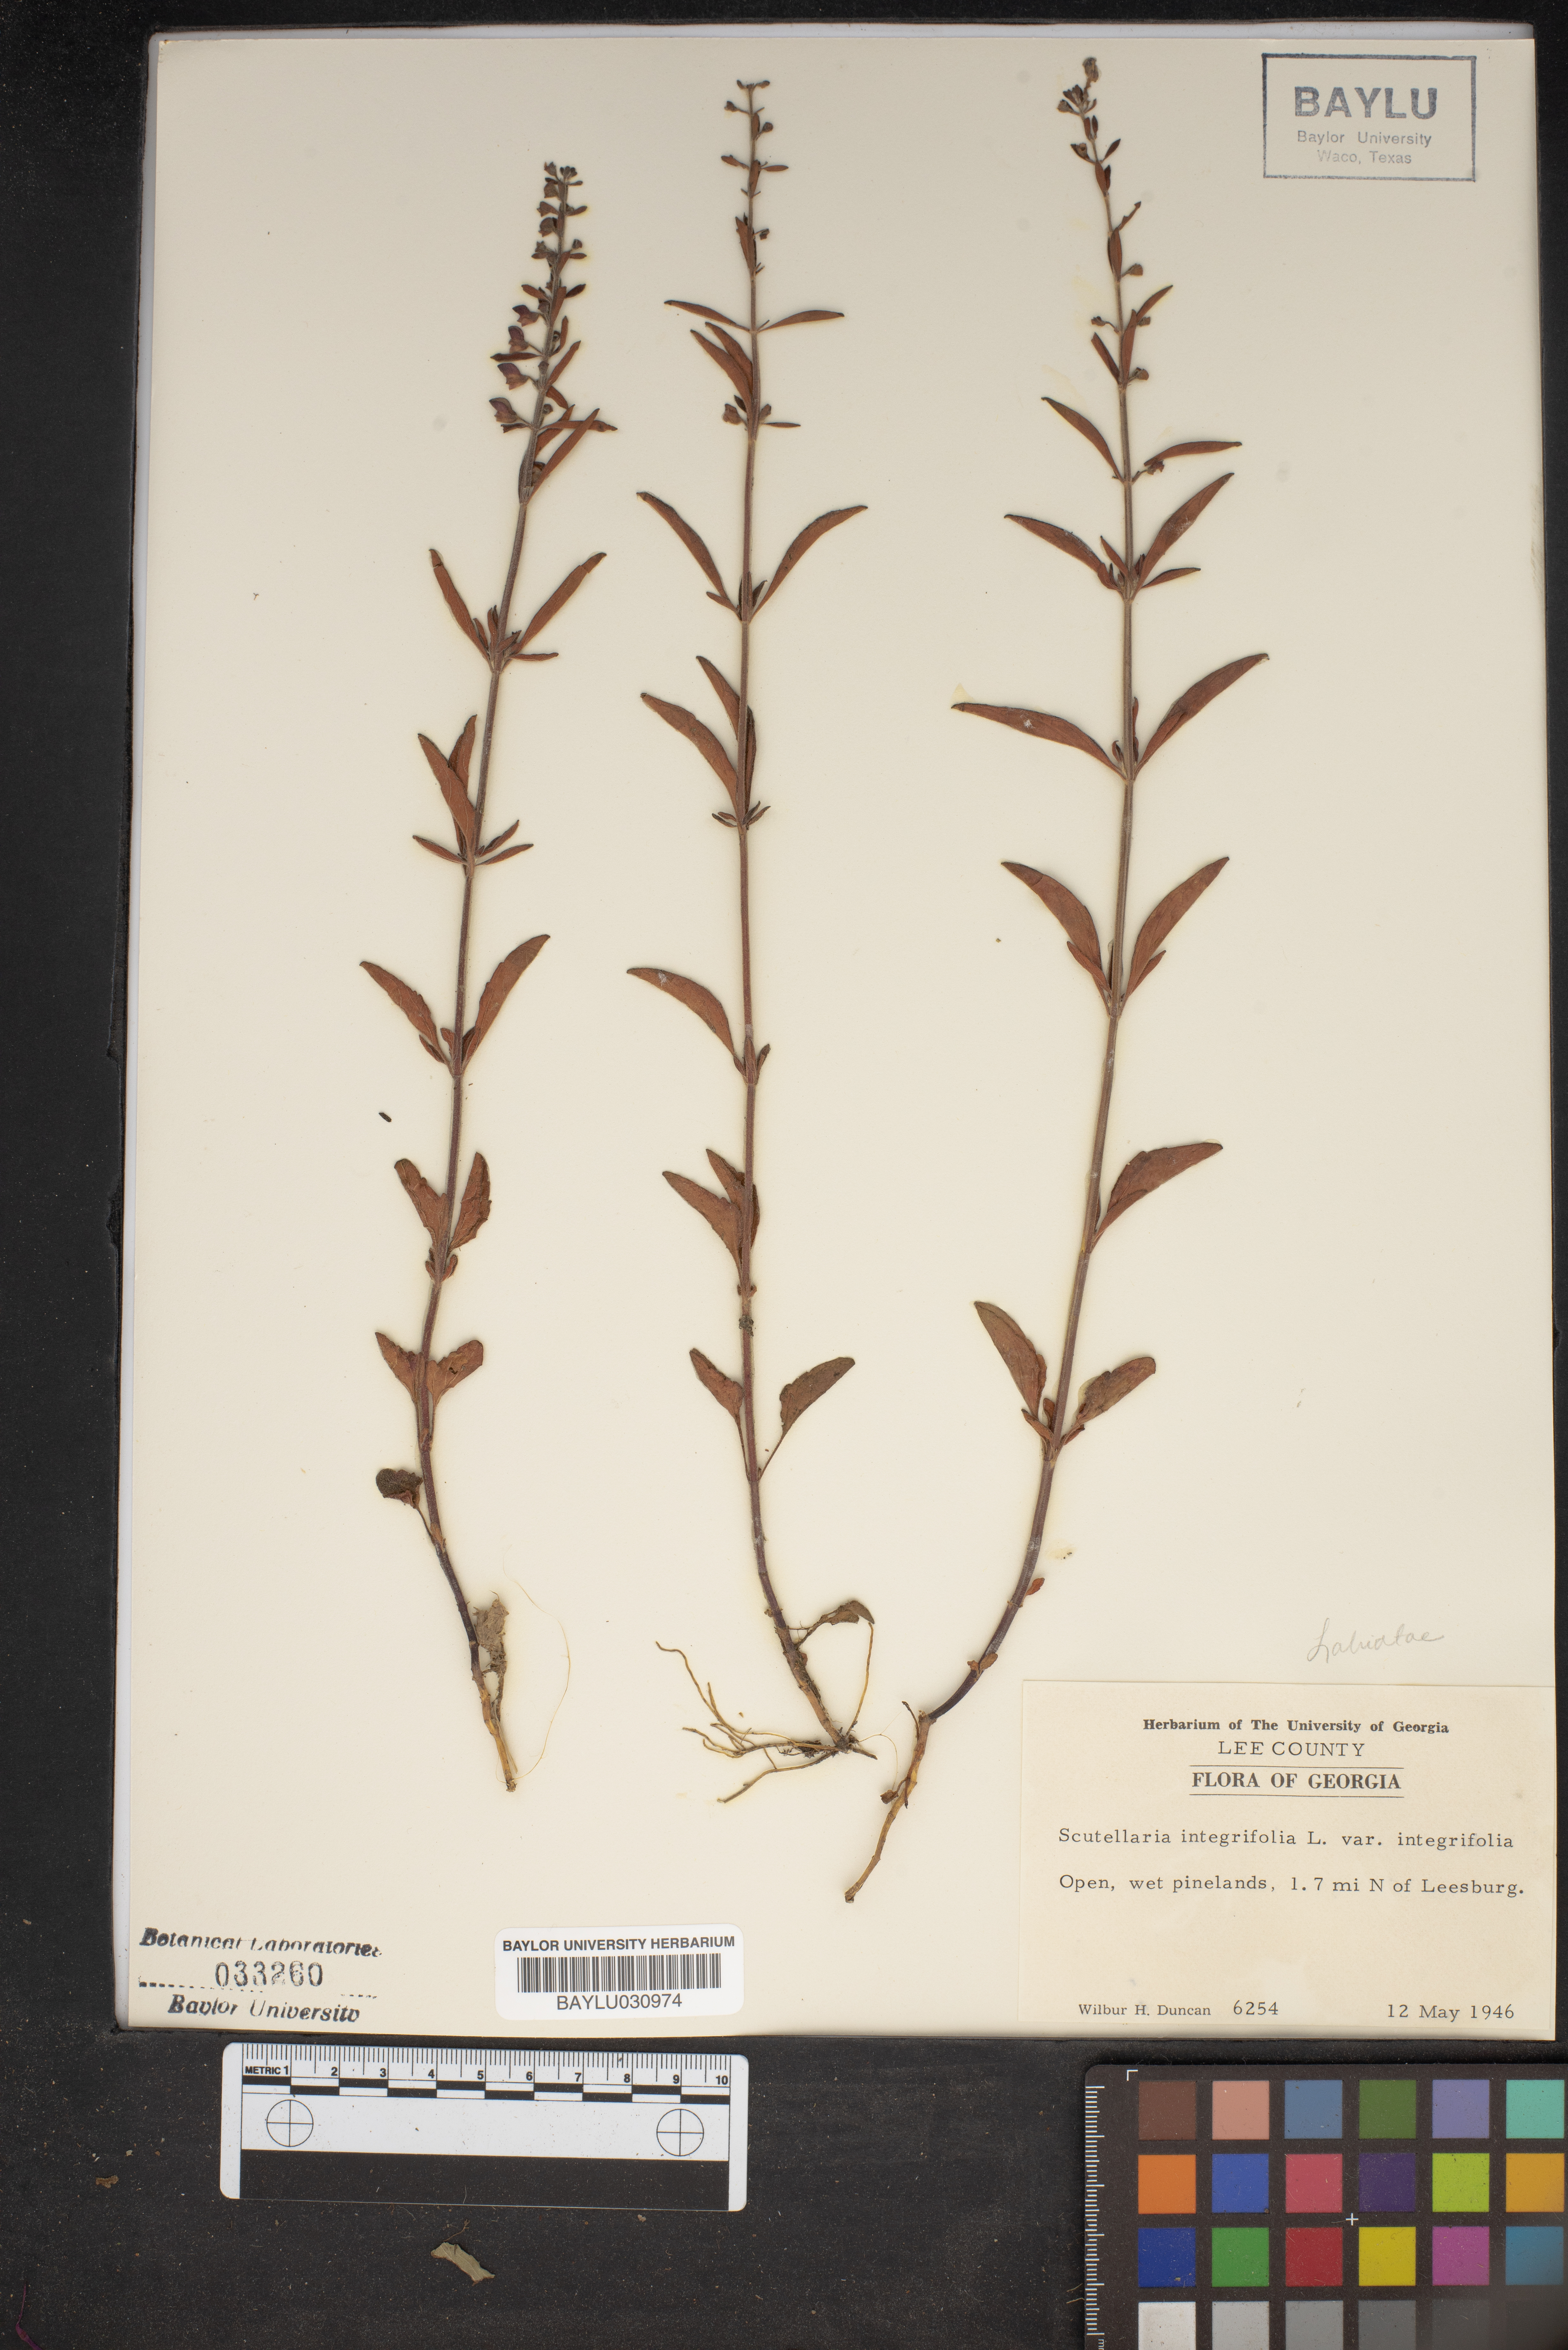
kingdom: Plantae
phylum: Tracheophyta
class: Magnoliopsida
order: Lamiales
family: Lamiaceae
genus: Scutellaria
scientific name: Scutellaria integrifolia
